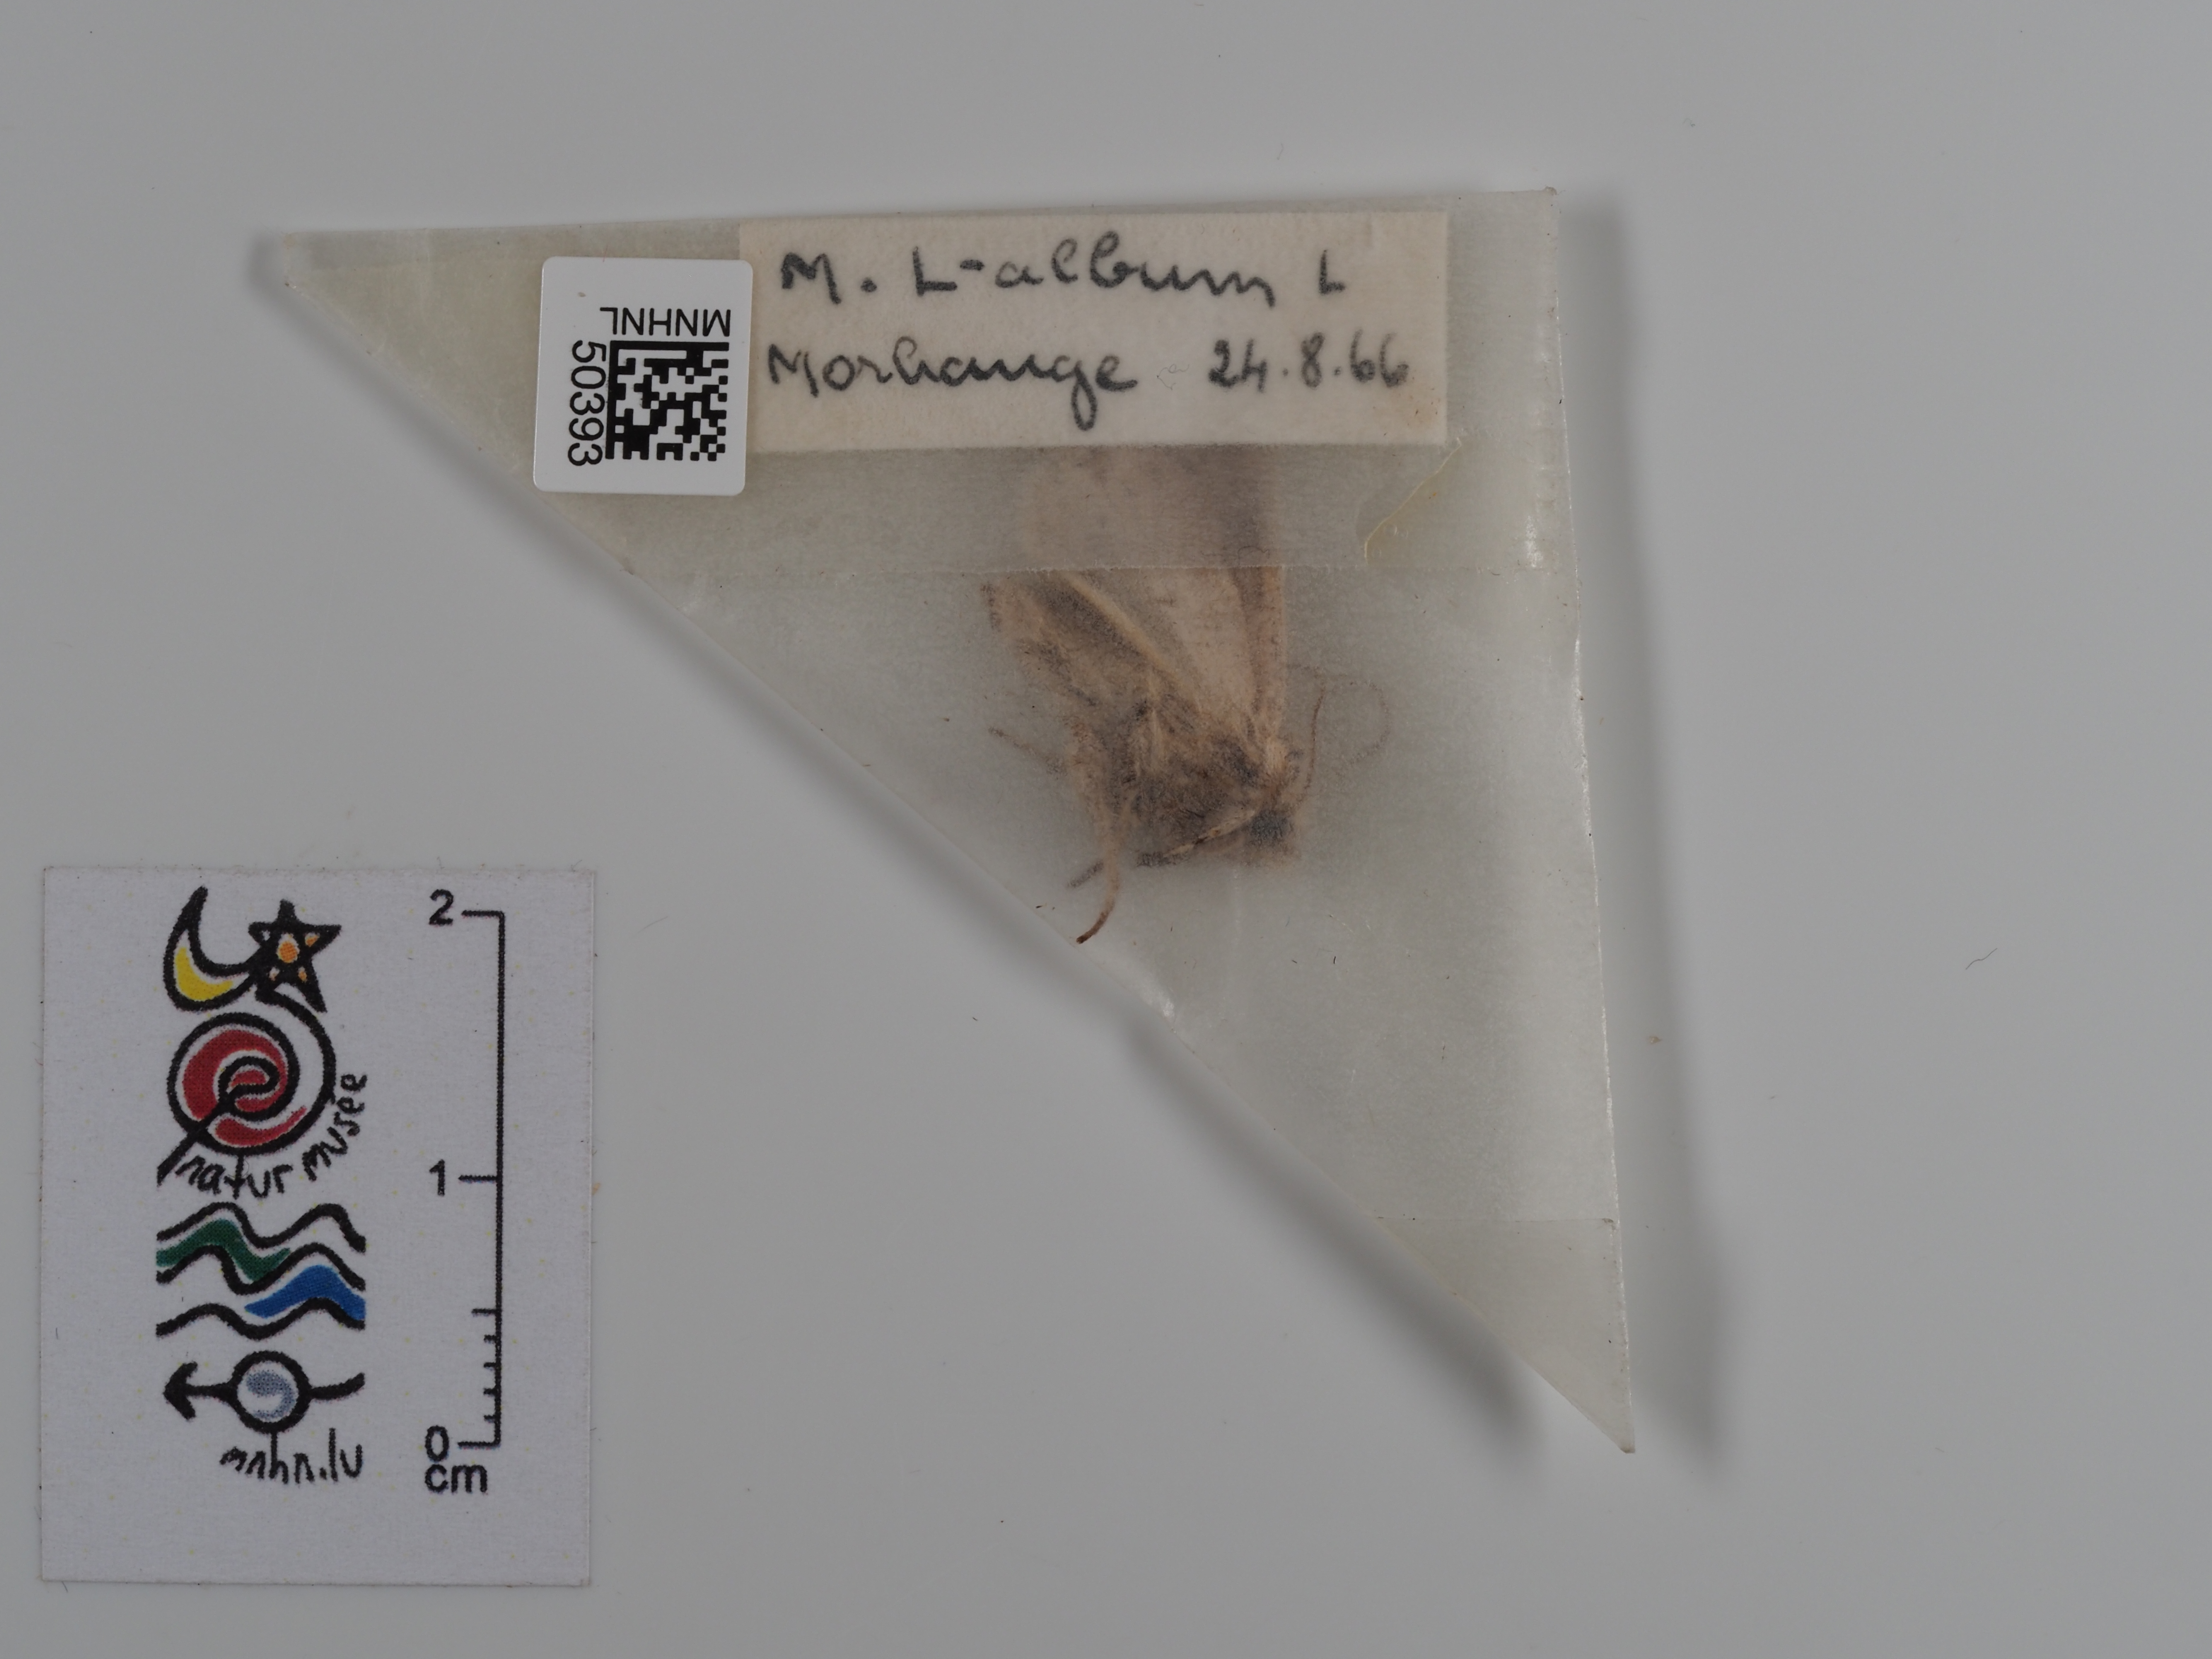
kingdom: Animalia
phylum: Arthropoda
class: Insecta
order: Lepidoptera
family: Noctuidae
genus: Mythimna
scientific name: Mythimna l-album
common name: L-album wainscot
